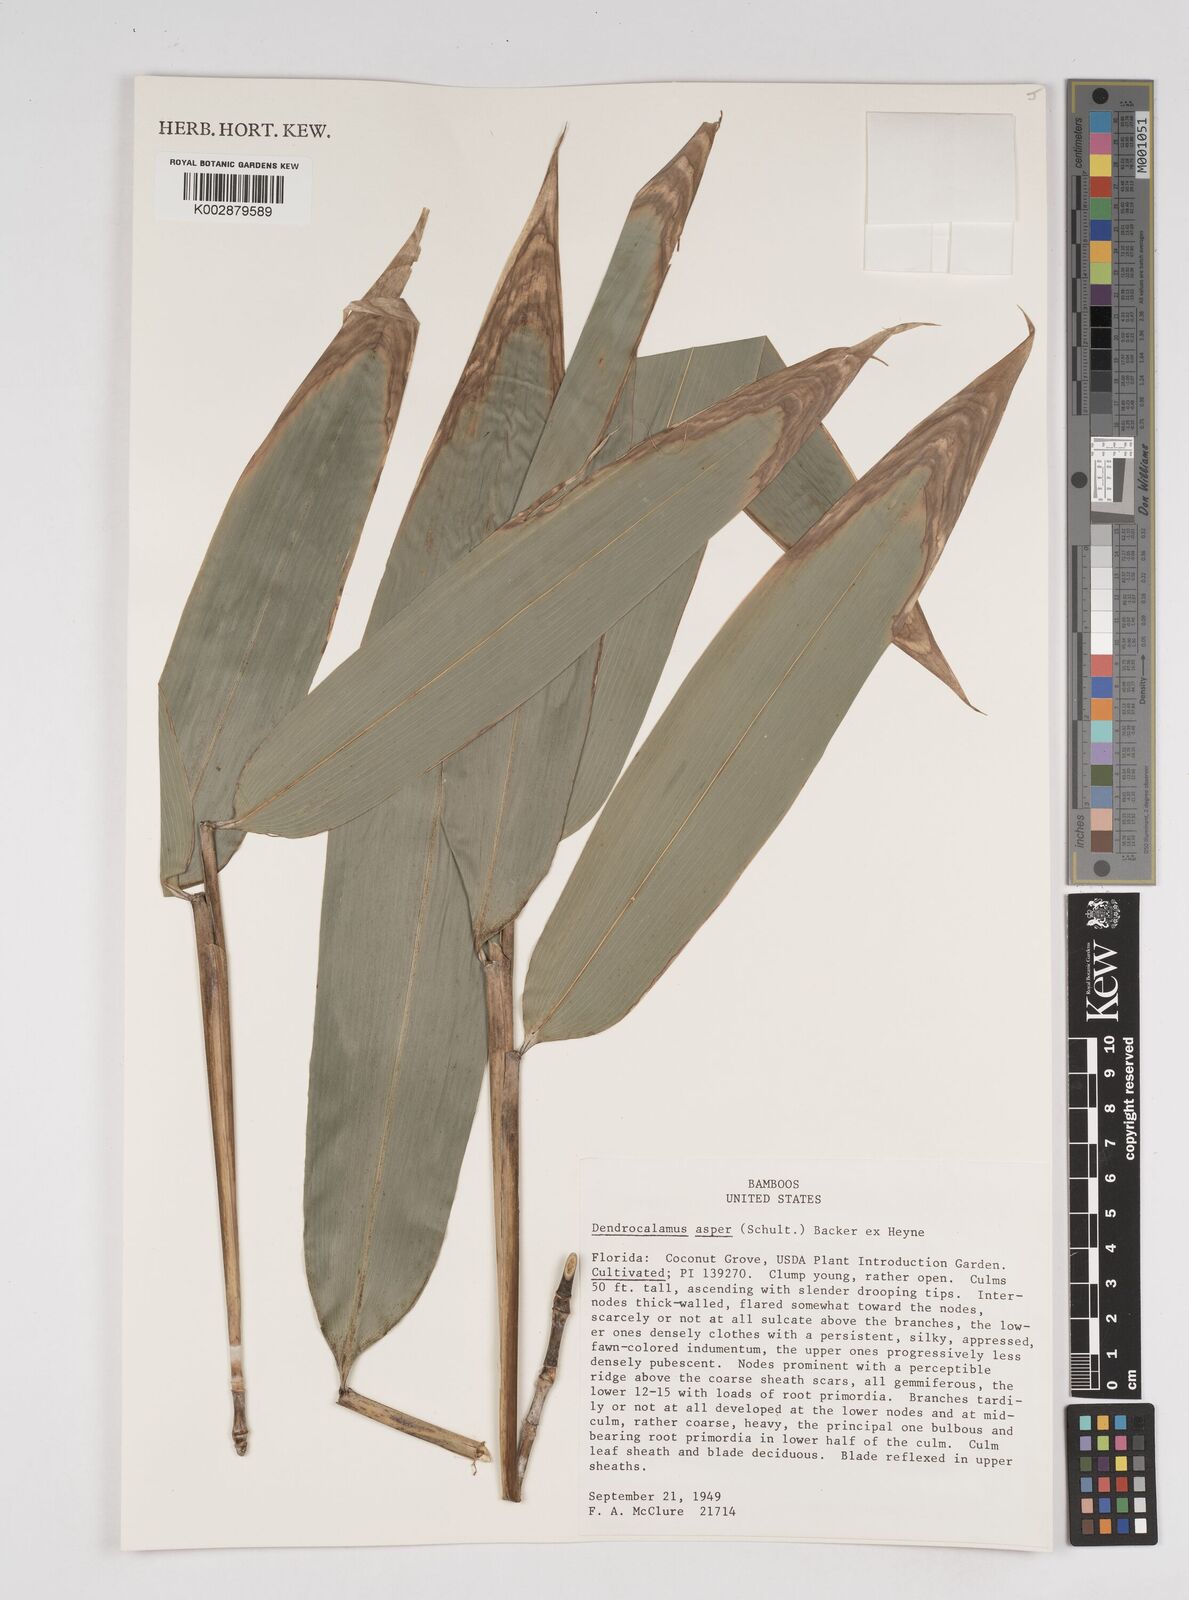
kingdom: Plantae
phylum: Tracheophyta
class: Liliopsida
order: Poales
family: Poaceae
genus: Dendrocalamus
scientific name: Dendrocalamus asper
